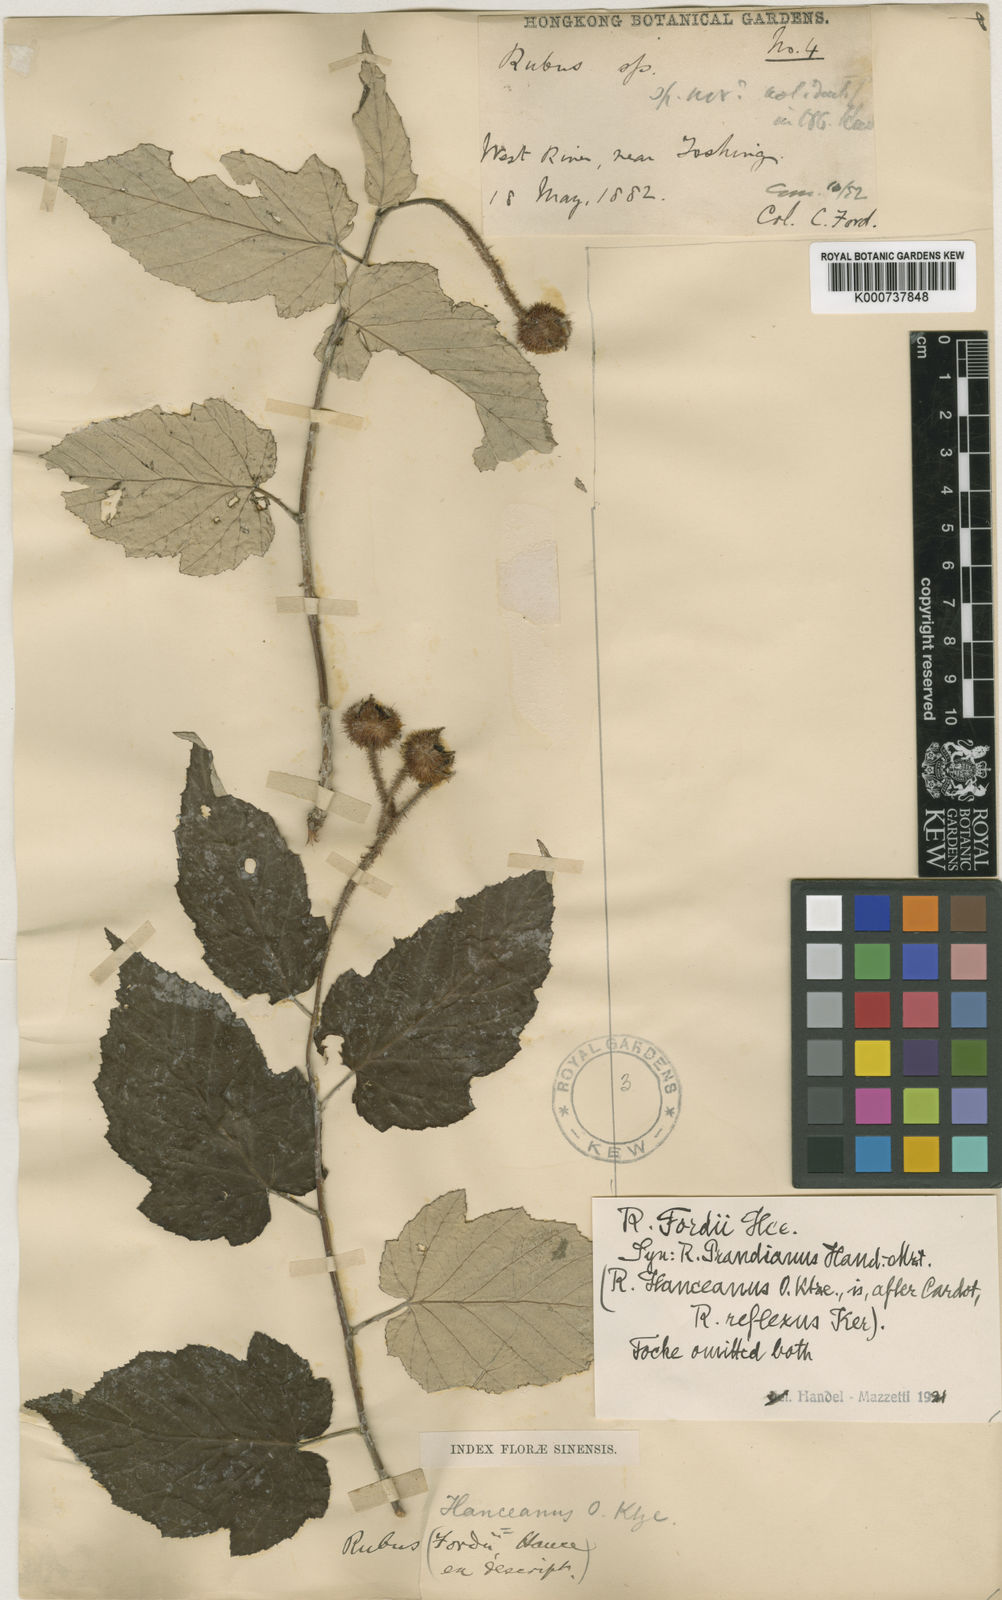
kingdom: Plantae
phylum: Tracheophyta
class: Magnoliopsida
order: Rosales
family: Rosaceae
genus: Rubus
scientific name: Rubus hanceanus
